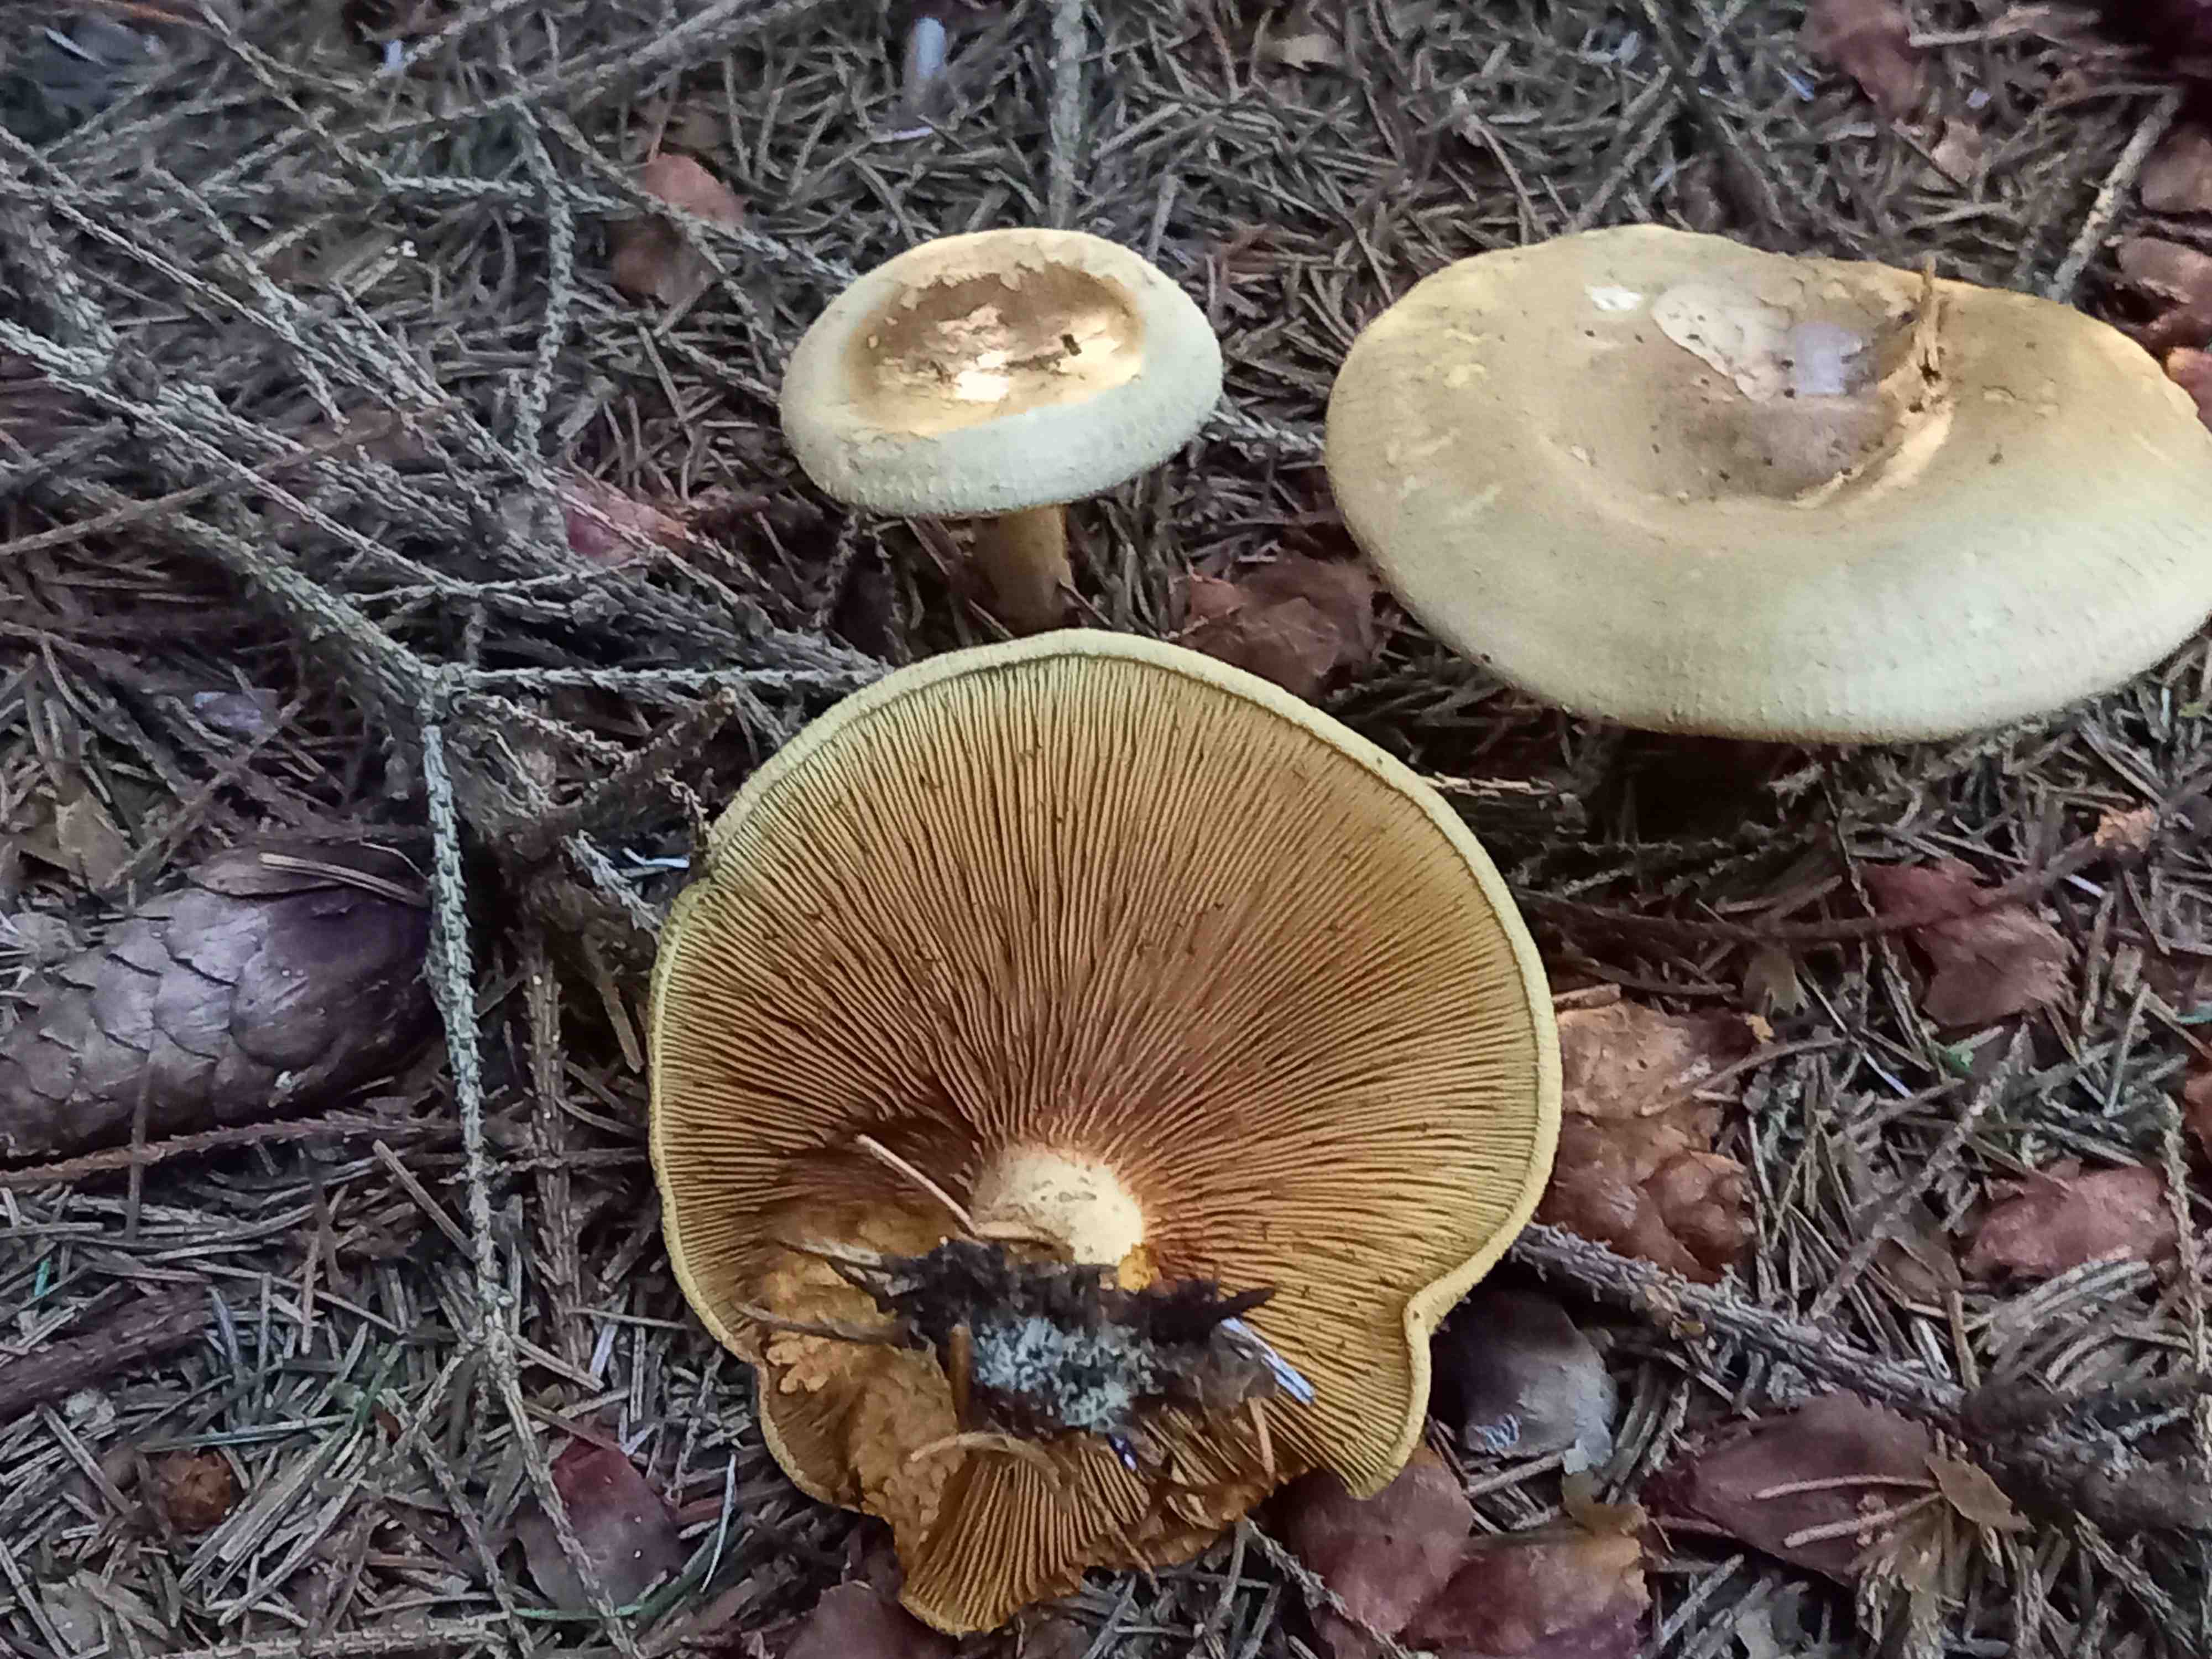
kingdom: Fungi
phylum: Basidiomycota
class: Agaricomycetes
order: Boletales
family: Paxillaceae
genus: Paxillus
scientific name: Paxillus involutus
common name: almindelig netbladhat
